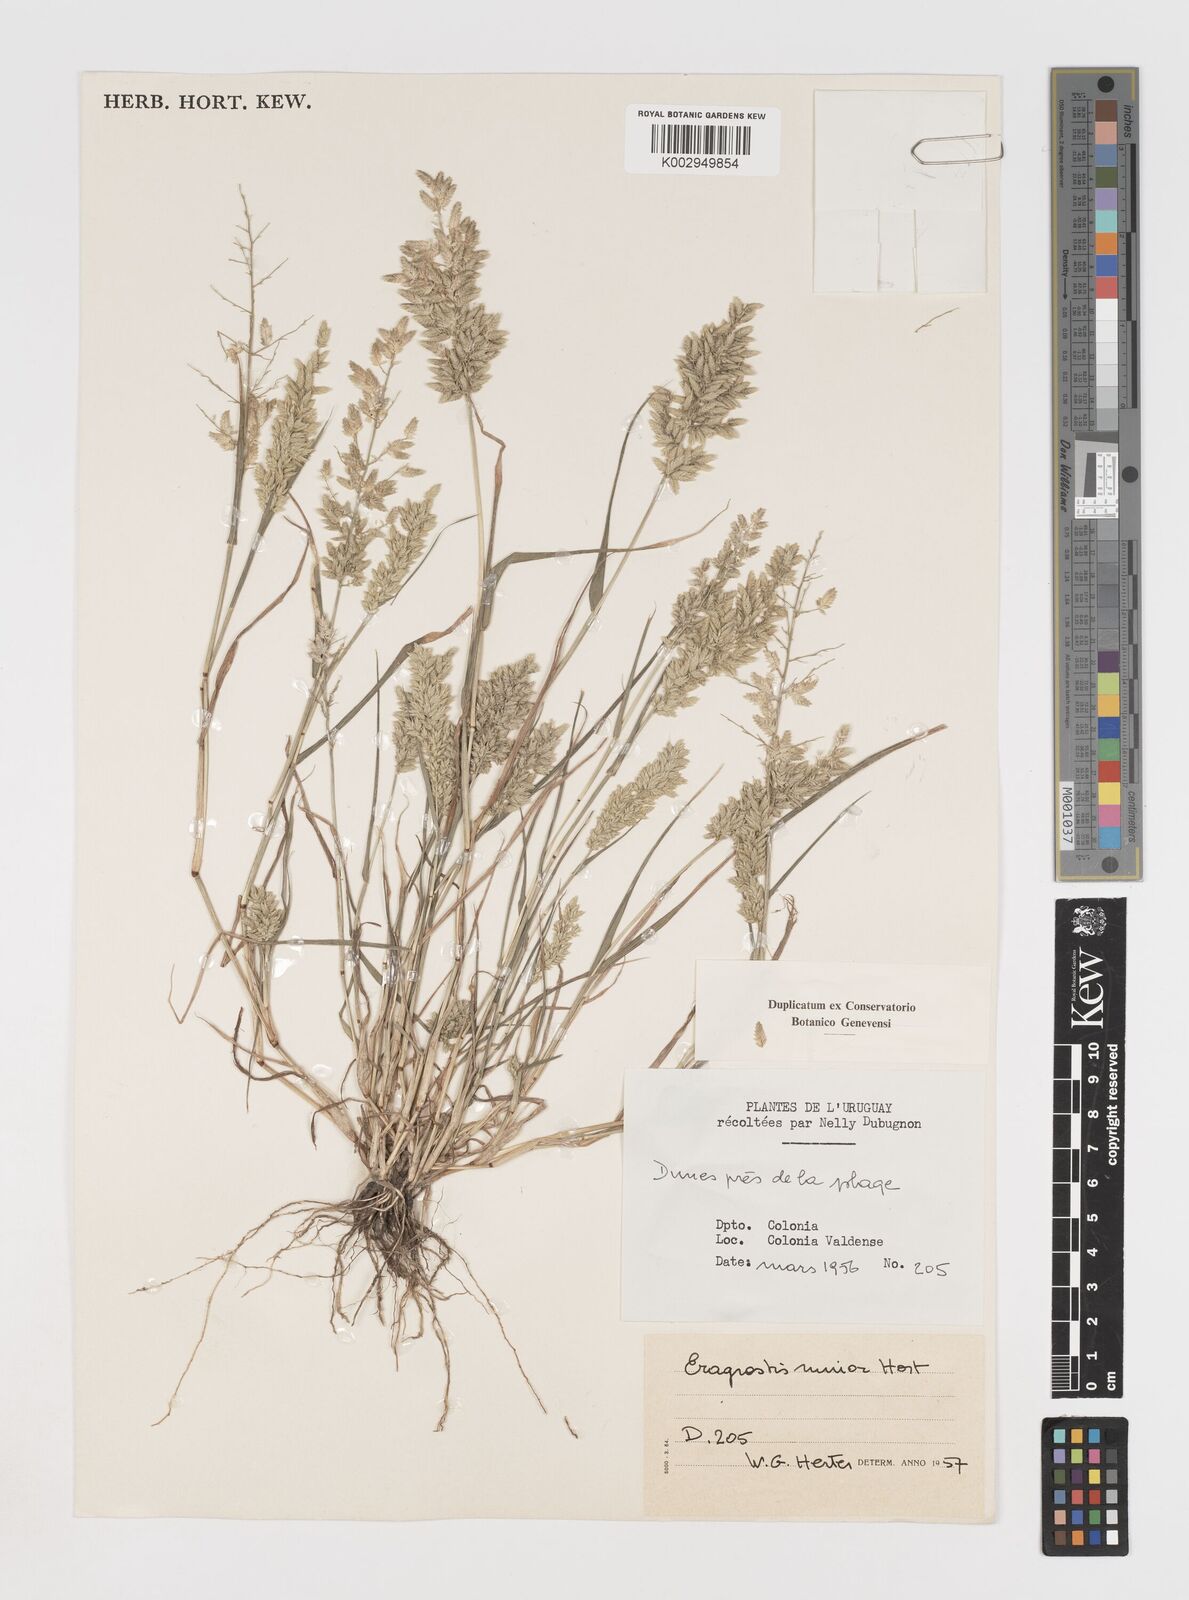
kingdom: Plantae
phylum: Tracheophyta
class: Liliopsida
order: Poales
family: Poaceae
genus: Eragrostis
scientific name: Eragrostis cilianensis
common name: Stinkgrass
